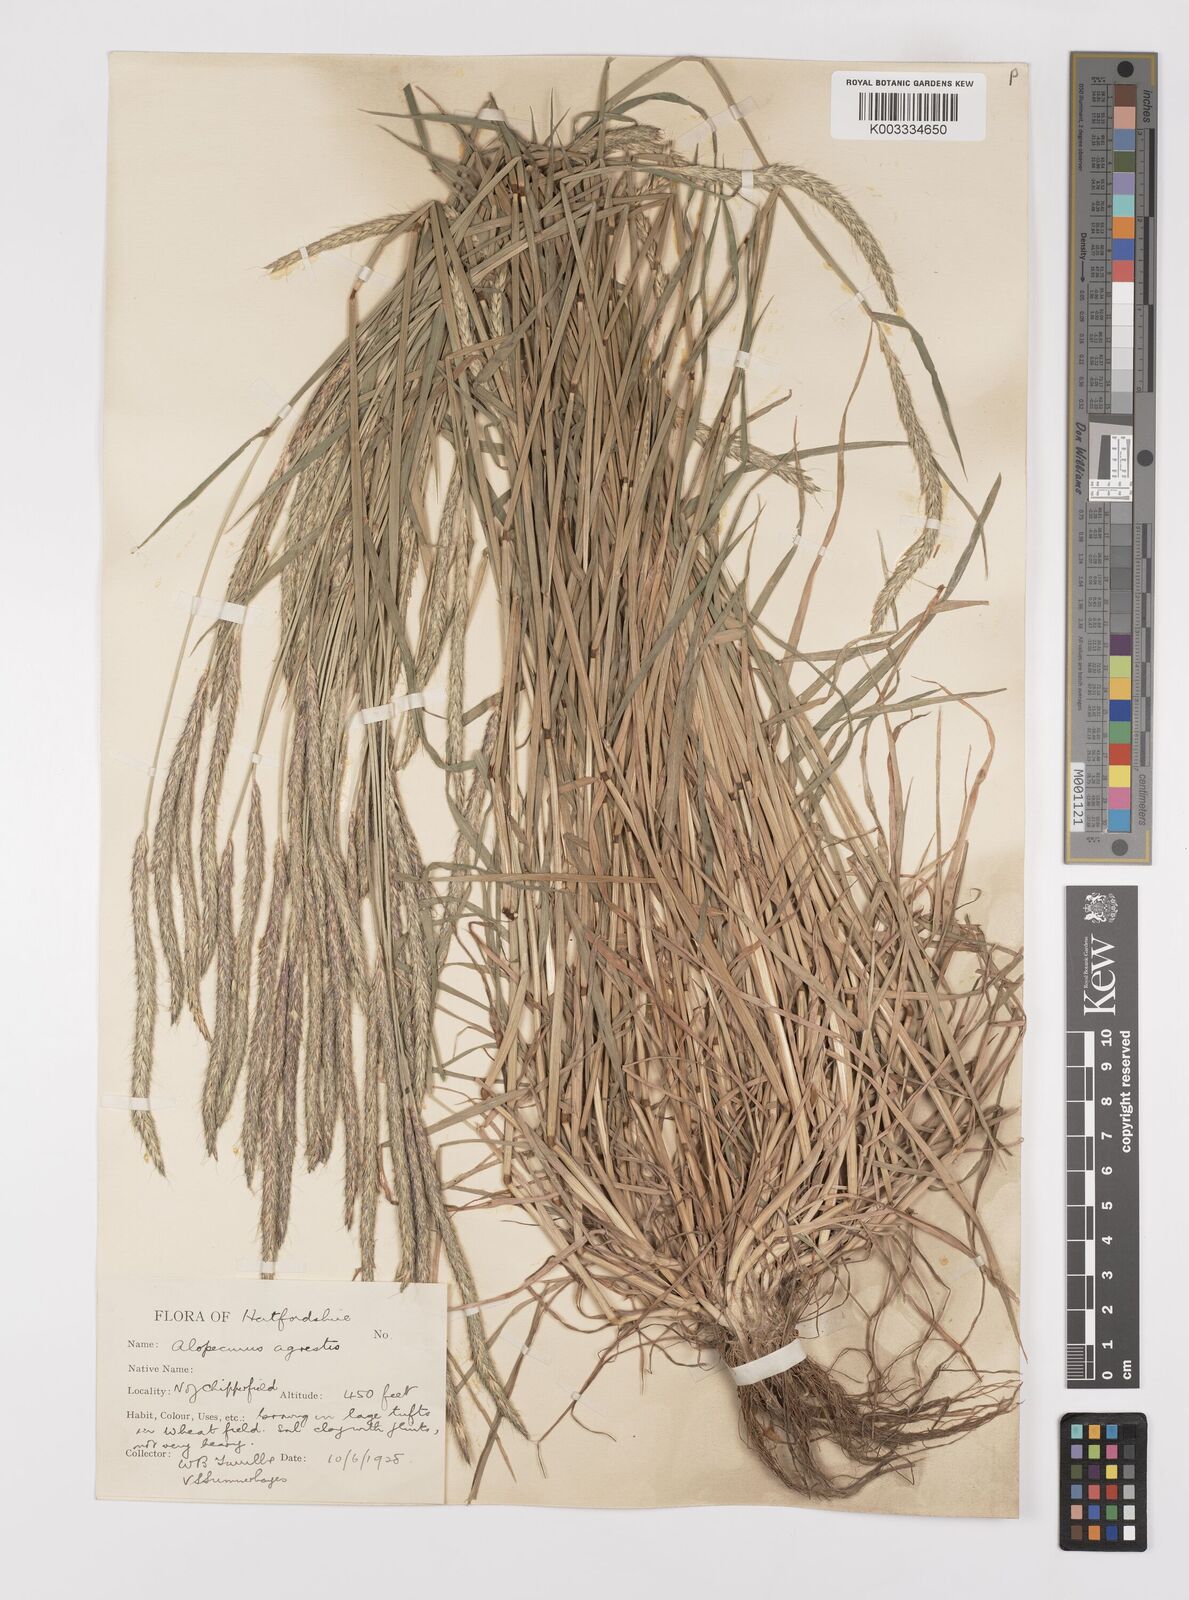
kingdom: Plantae
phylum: Tracheophyta
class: Liliopsida
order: Poales
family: Poaceae
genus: Alopecurus
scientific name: Alopecurus myosuroides
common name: Black-grass
